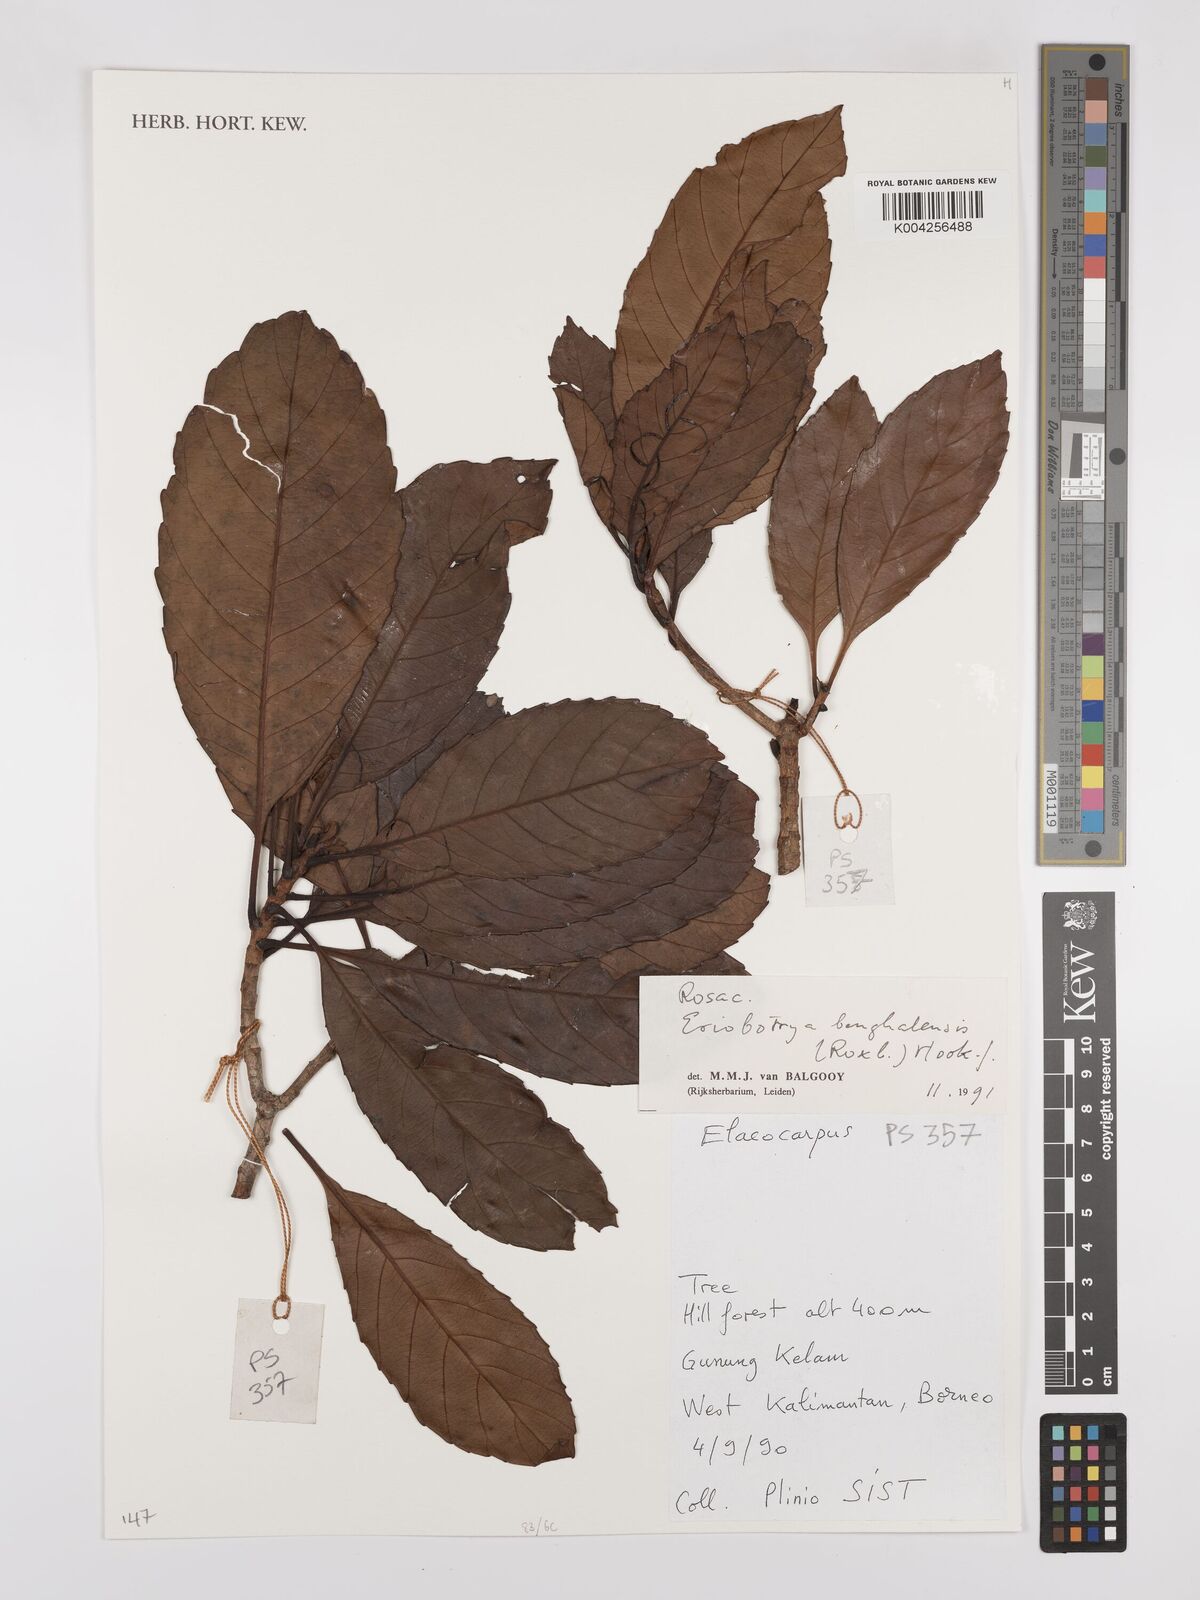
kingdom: Plantae
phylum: Tracheophyta
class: Magnoliopsida
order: Rosales
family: Rosaceae
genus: Rhaphiolepis
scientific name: Rhaphiolepis bengalensis
